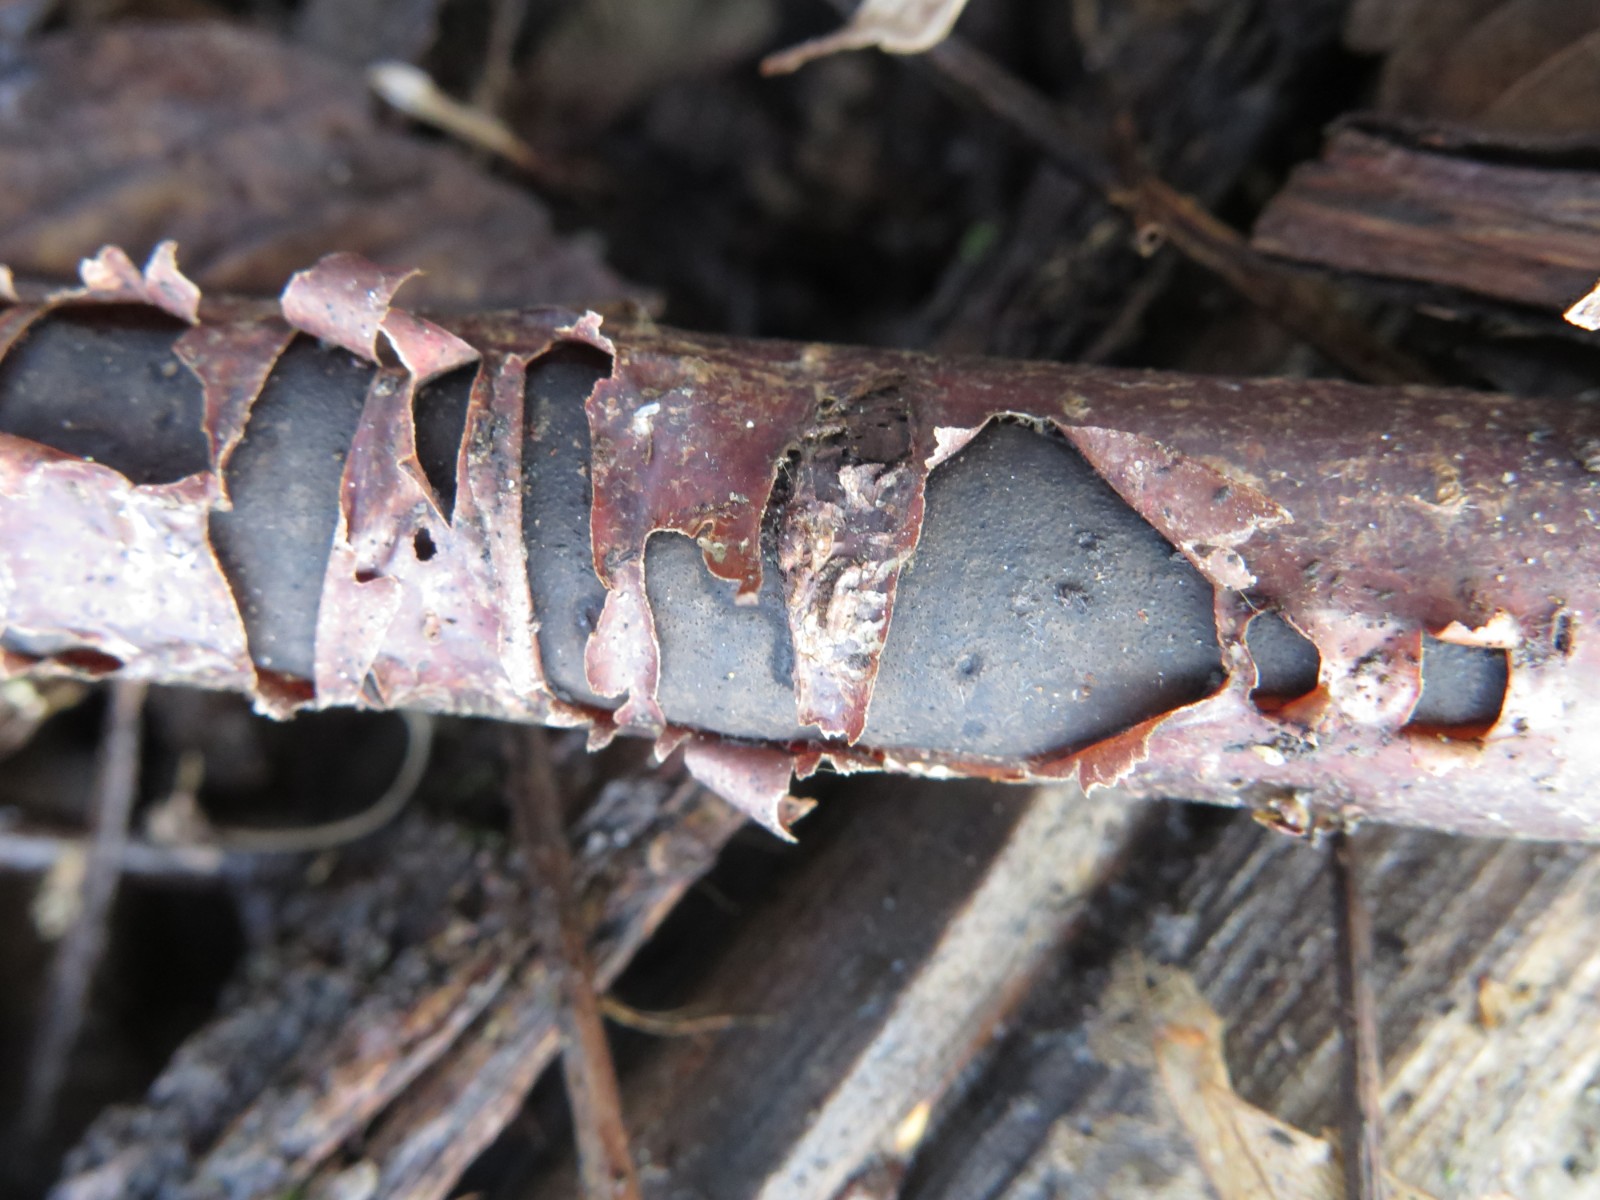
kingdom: Fungi
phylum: Ascomycota
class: Sordariomycetes
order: Xylariales
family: Diatrypaceae
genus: Diatrype
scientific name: Diatrype decorticata
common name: barksprænger-kulskorpe
